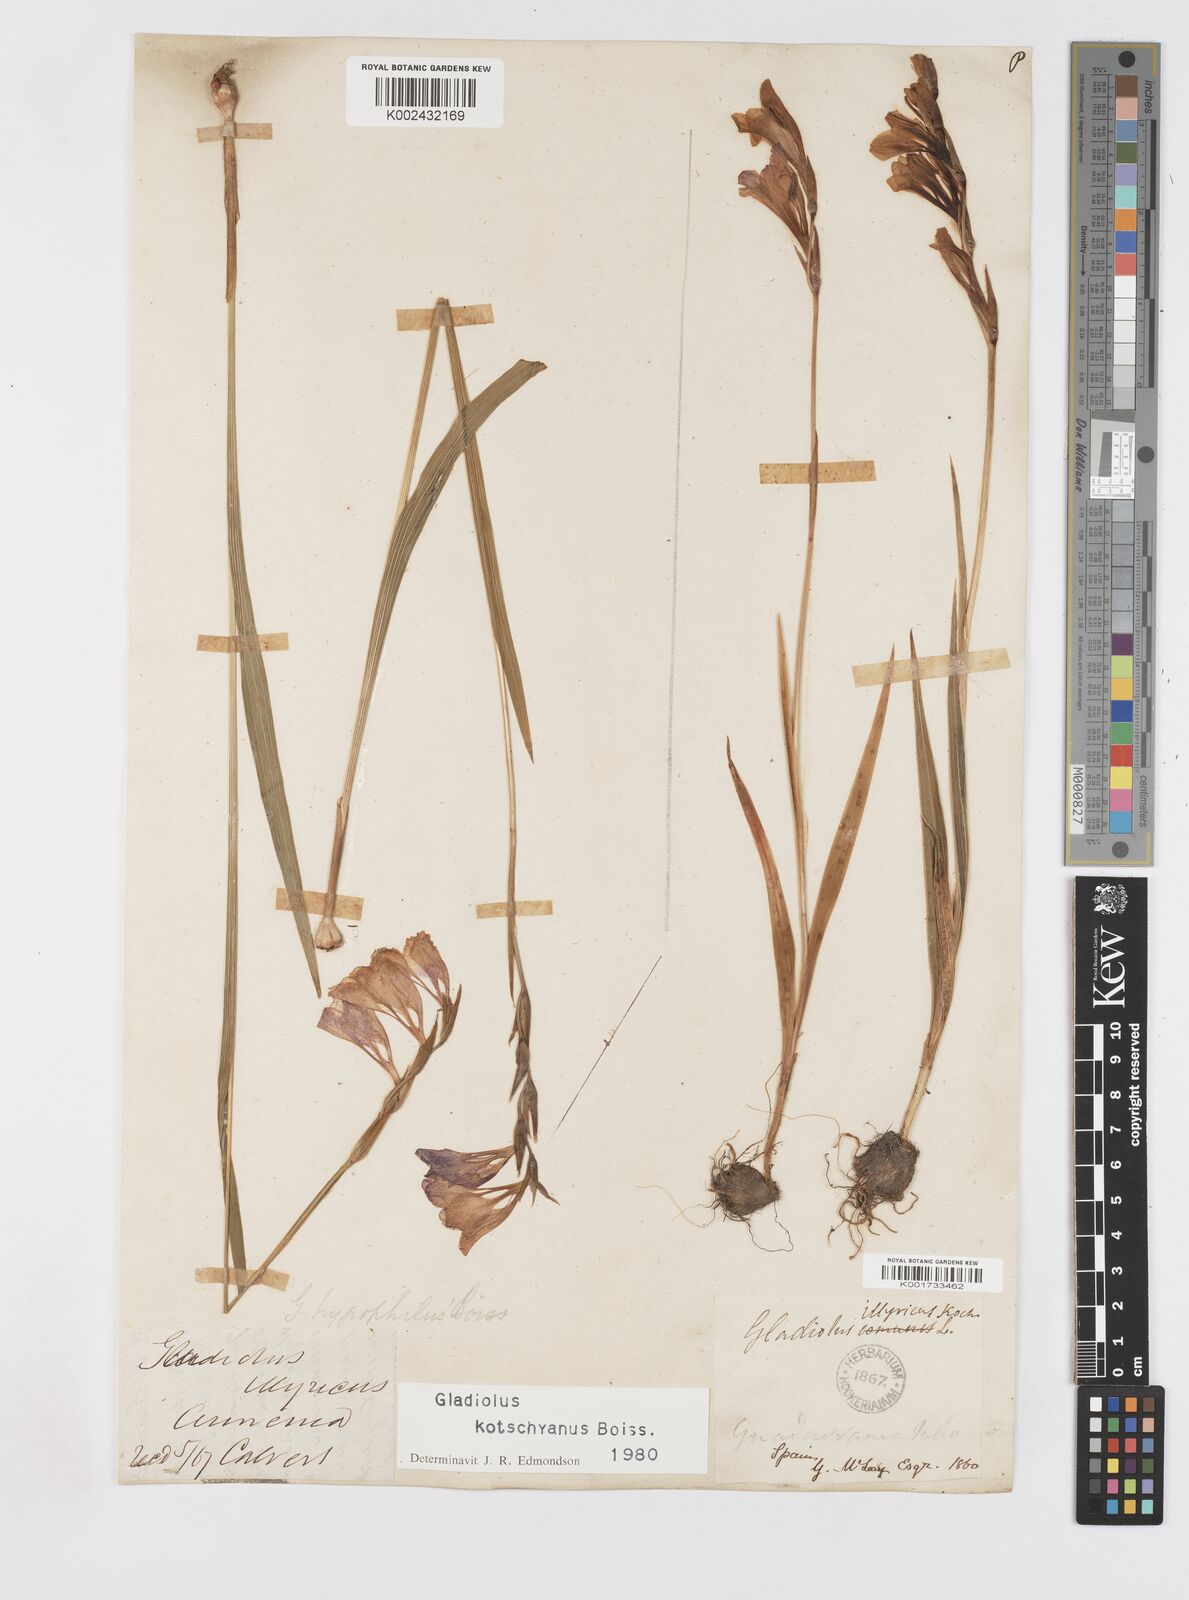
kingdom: Plantae
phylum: Tracheophyta
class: Liliopsida
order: Asparagales
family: Iridaceae
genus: Gladiolus
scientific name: Gladiolus imbricatus
